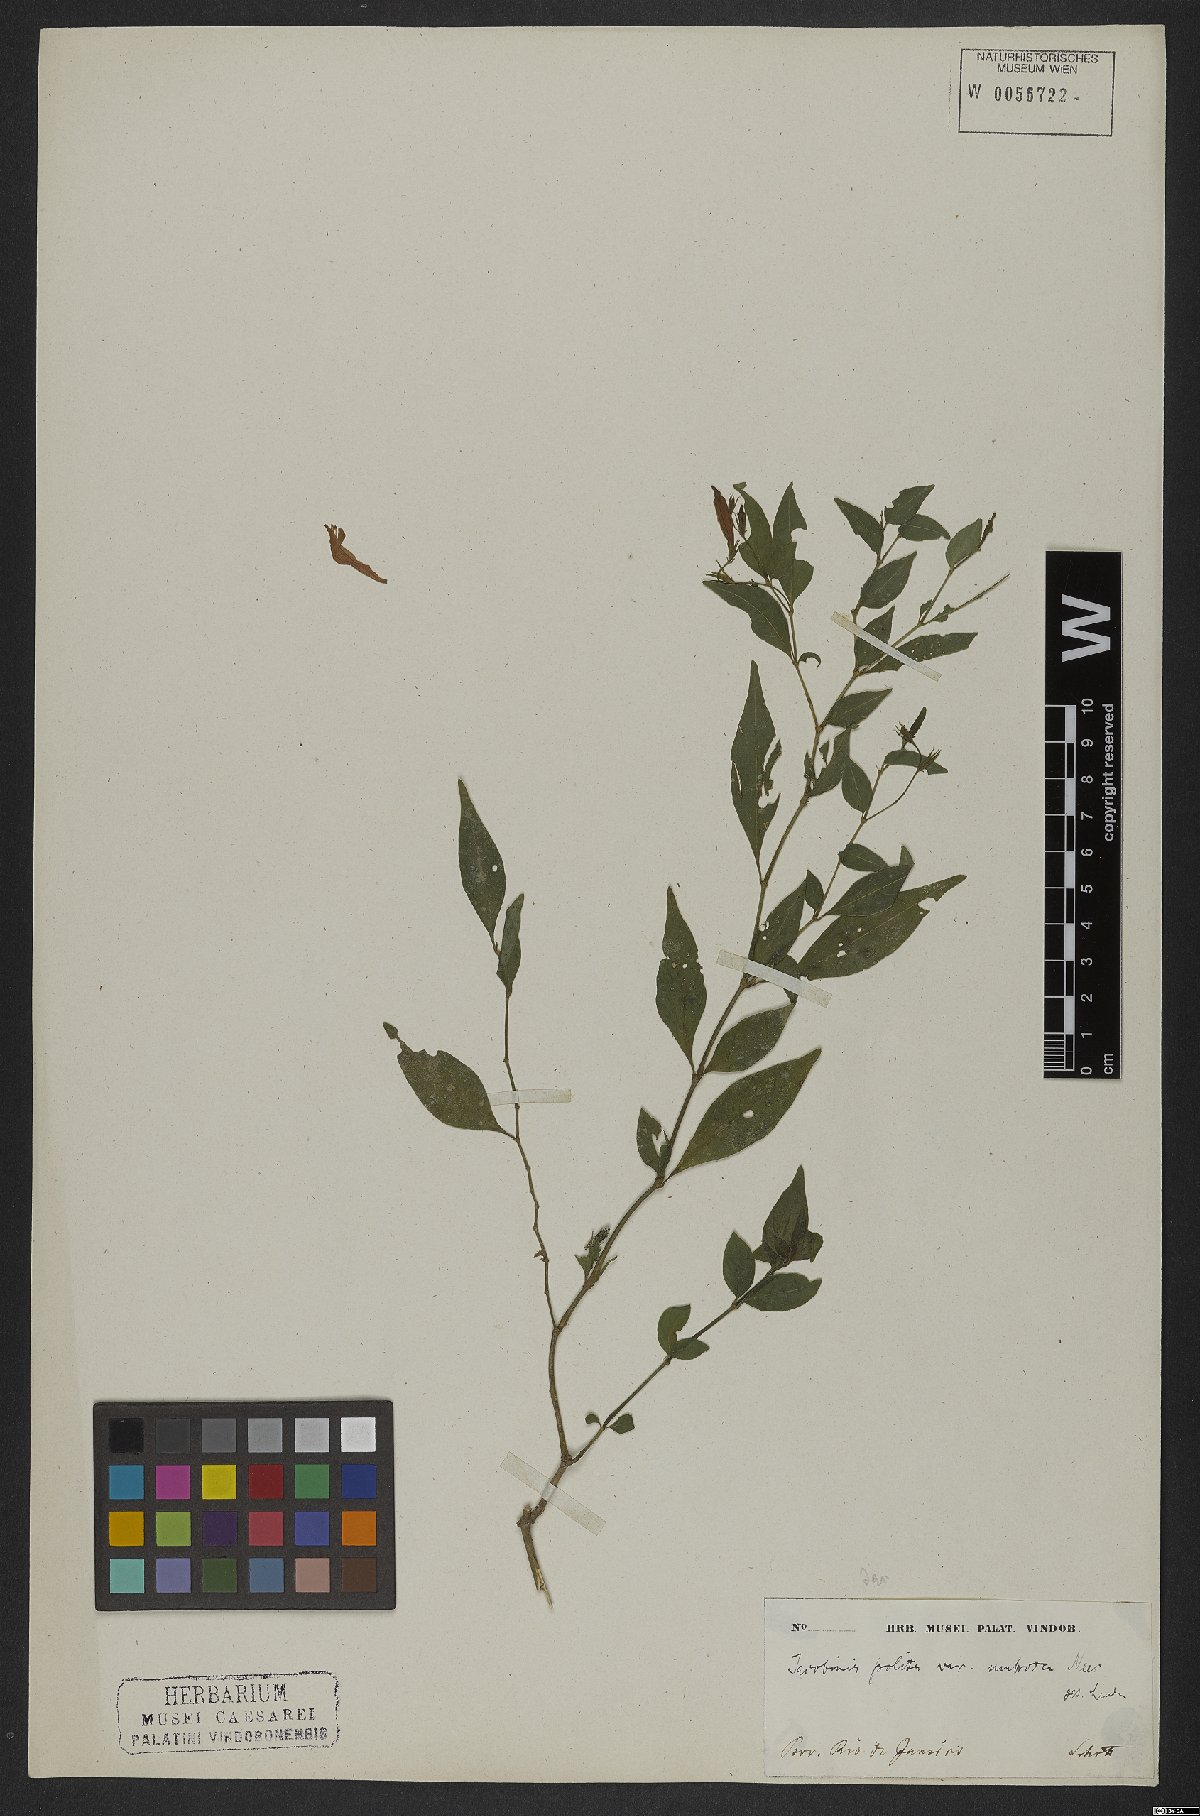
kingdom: Plantae
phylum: Tracheophyta
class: Magnoliopsida
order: Lamiales
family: Acanthaceae
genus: Justicia
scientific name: Justicia polita
